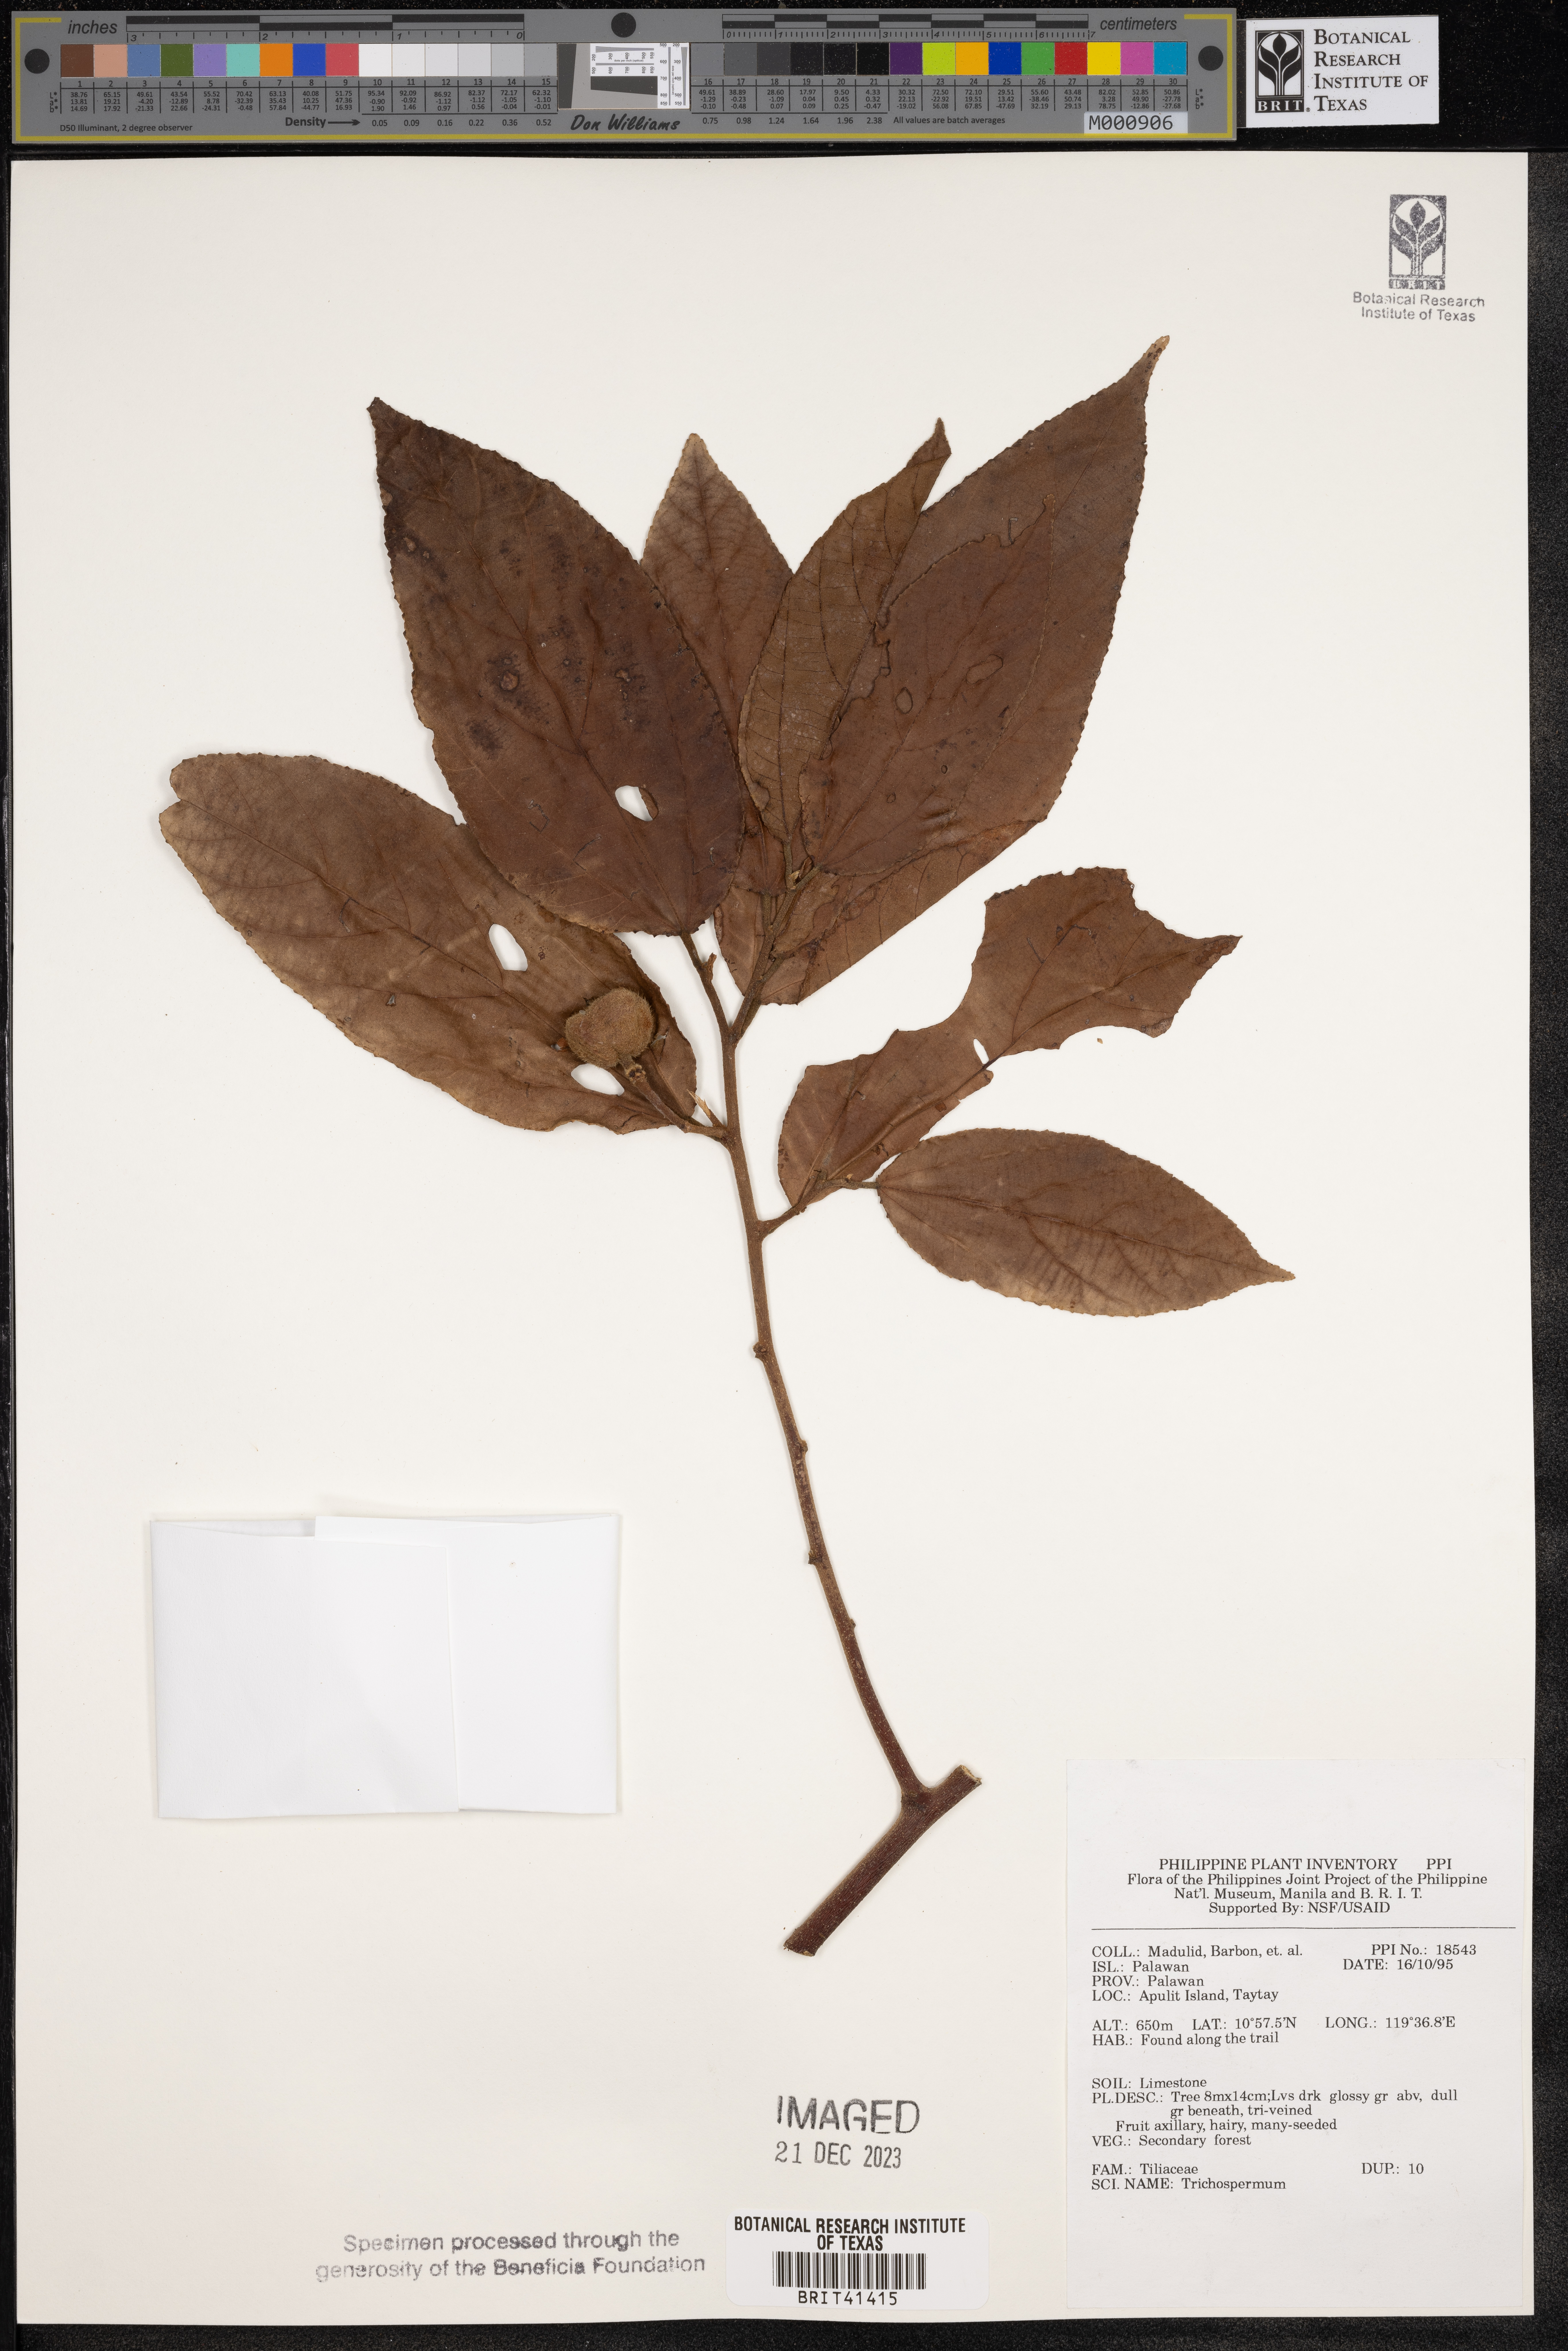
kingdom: Plantae
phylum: Tracheophyta
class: Magnoliopsida
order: Malvales
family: Malvaceae
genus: Trichospermum
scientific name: Trichospermum
